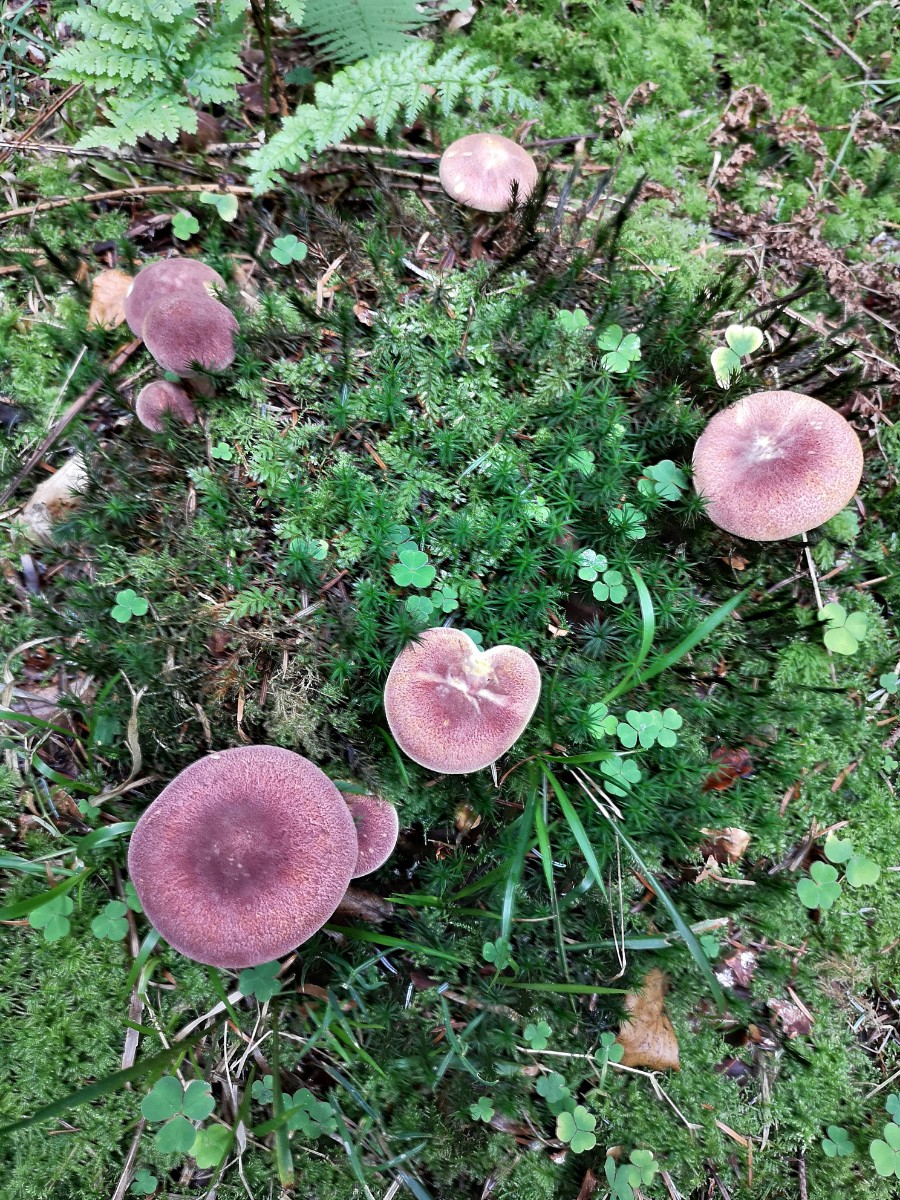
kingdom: Fungi
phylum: Basidiomycota
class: Agaricomycetes
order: Agaricales
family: Tricholomataceae
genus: Tricholomopsis
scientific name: Tricholomopsis rutilans
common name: purpur-væbnerhat
